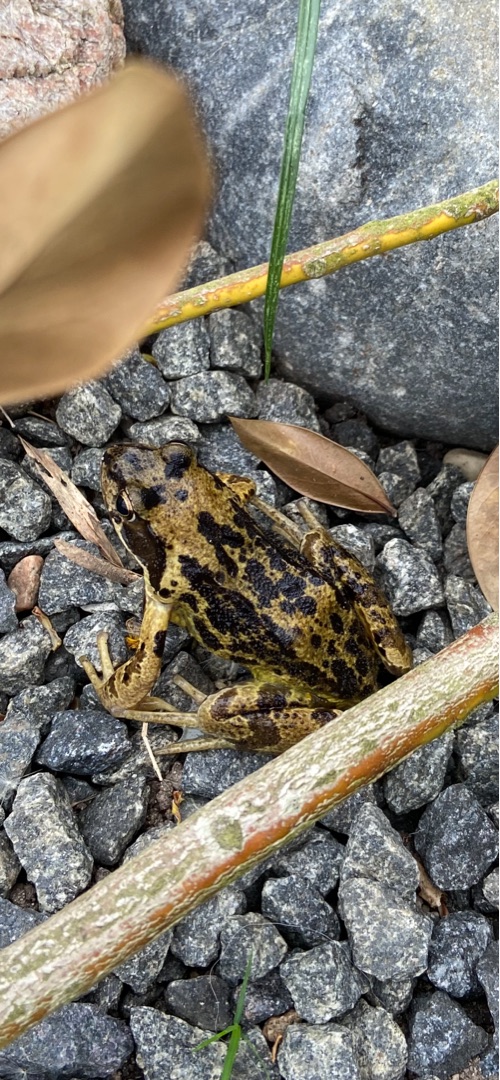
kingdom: Animalia
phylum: Chordata
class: Amphibia
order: Anura
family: Ranidae
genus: Rana
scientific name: Rana temporaria
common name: Butsnudet frø
